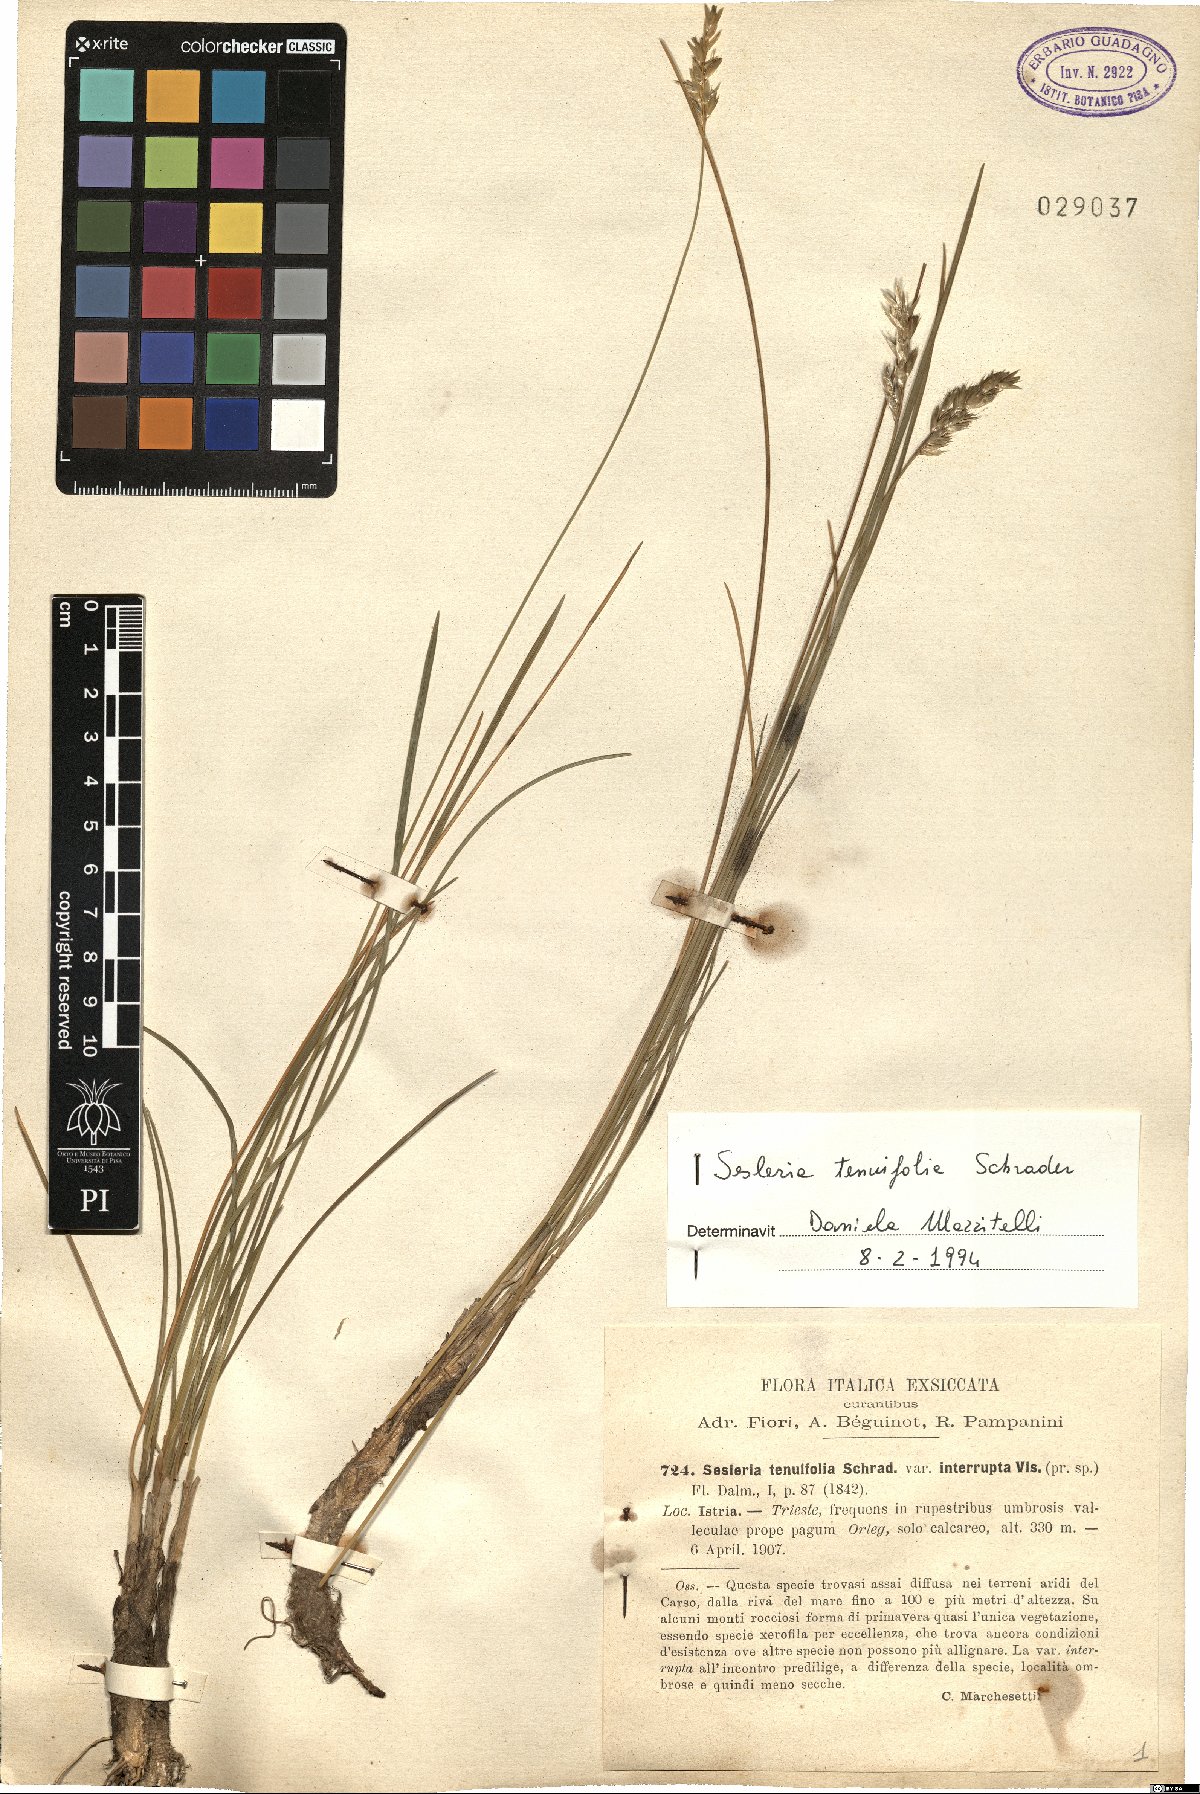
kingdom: Plantae
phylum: Tracheophyta
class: Liliopsida
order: Poales
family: Poaceae
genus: Sesleria
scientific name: Sesleria juncifolia
